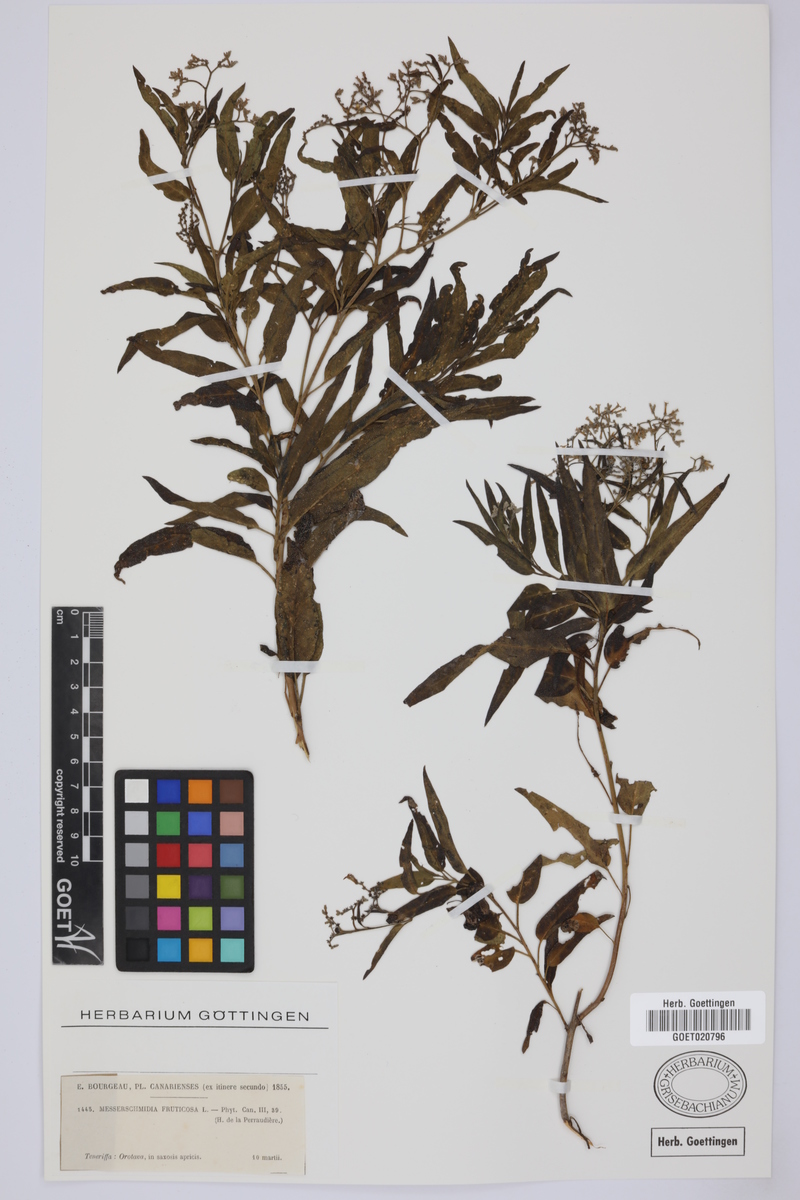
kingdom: Plantae
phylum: Tracheophyta
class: Magnoliopsida
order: Boraginales
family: Heliotropiaceae
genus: Heliotropium
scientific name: Heliotropium messerschmidioides
